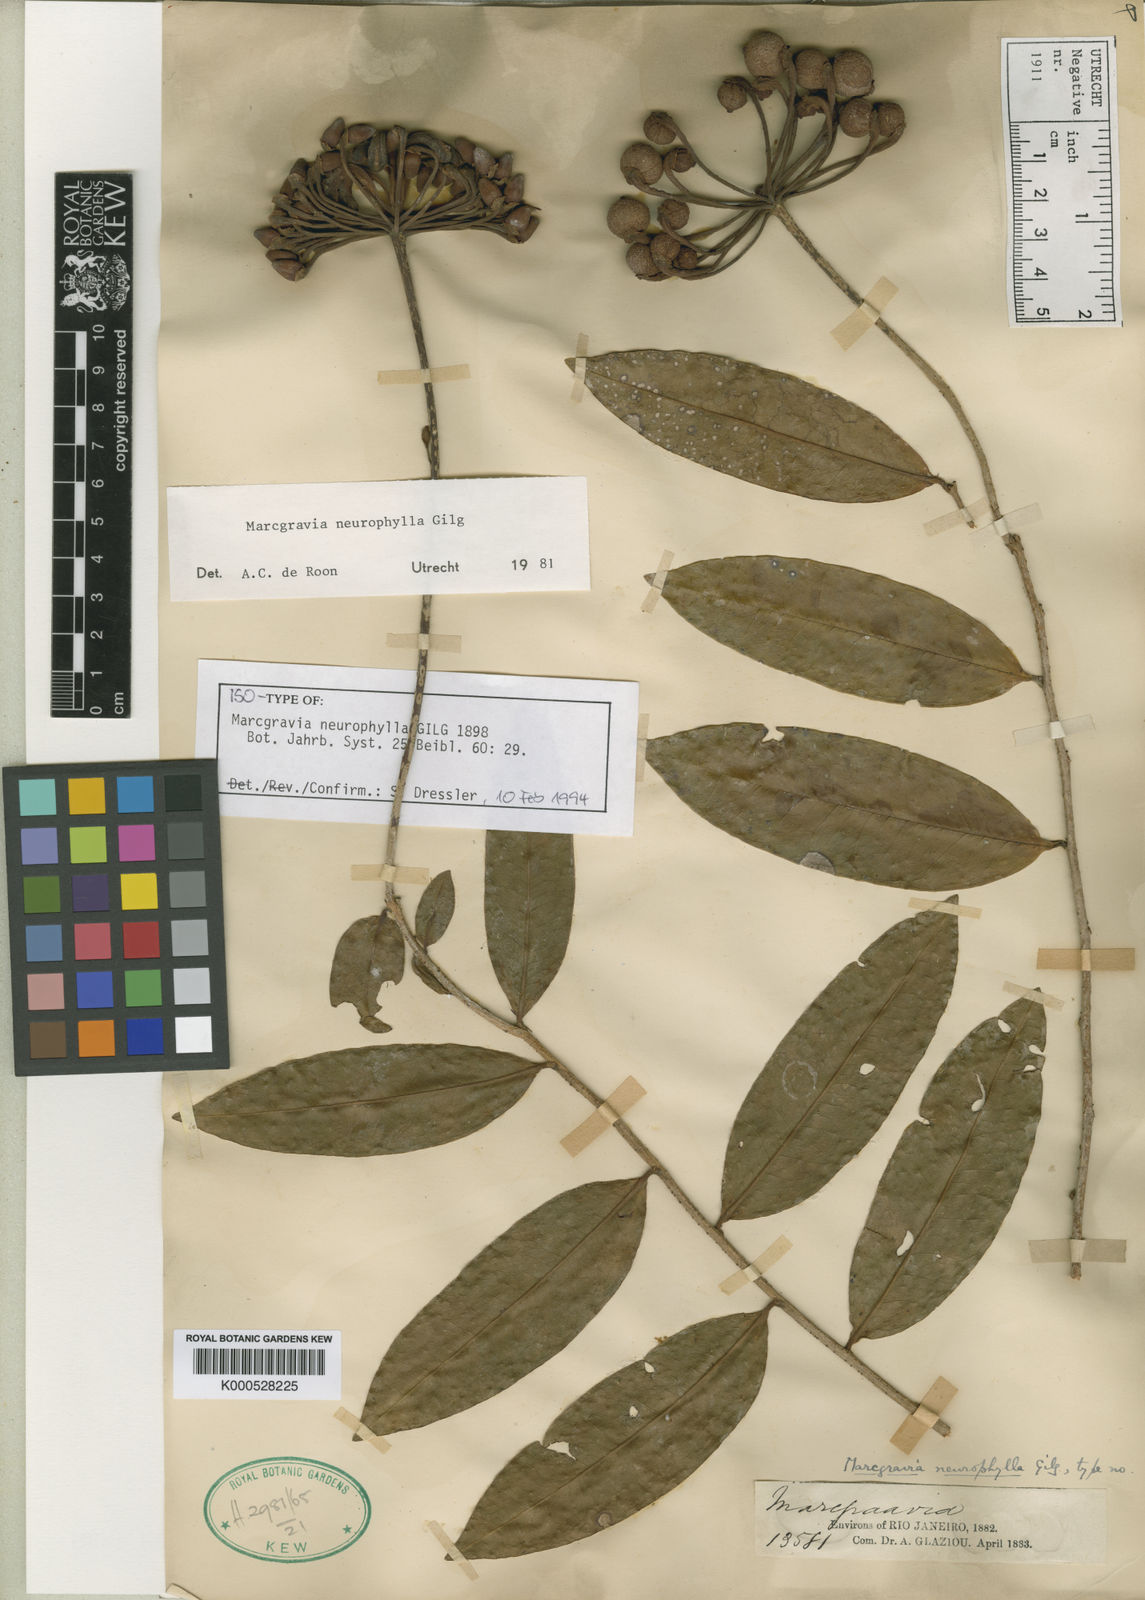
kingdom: Plantae
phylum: Tracheophyta
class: Magnoliopsida
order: Ericales
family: Marcgraviaceae
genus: Marcgravia
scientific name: Marcgravia neurophylla
